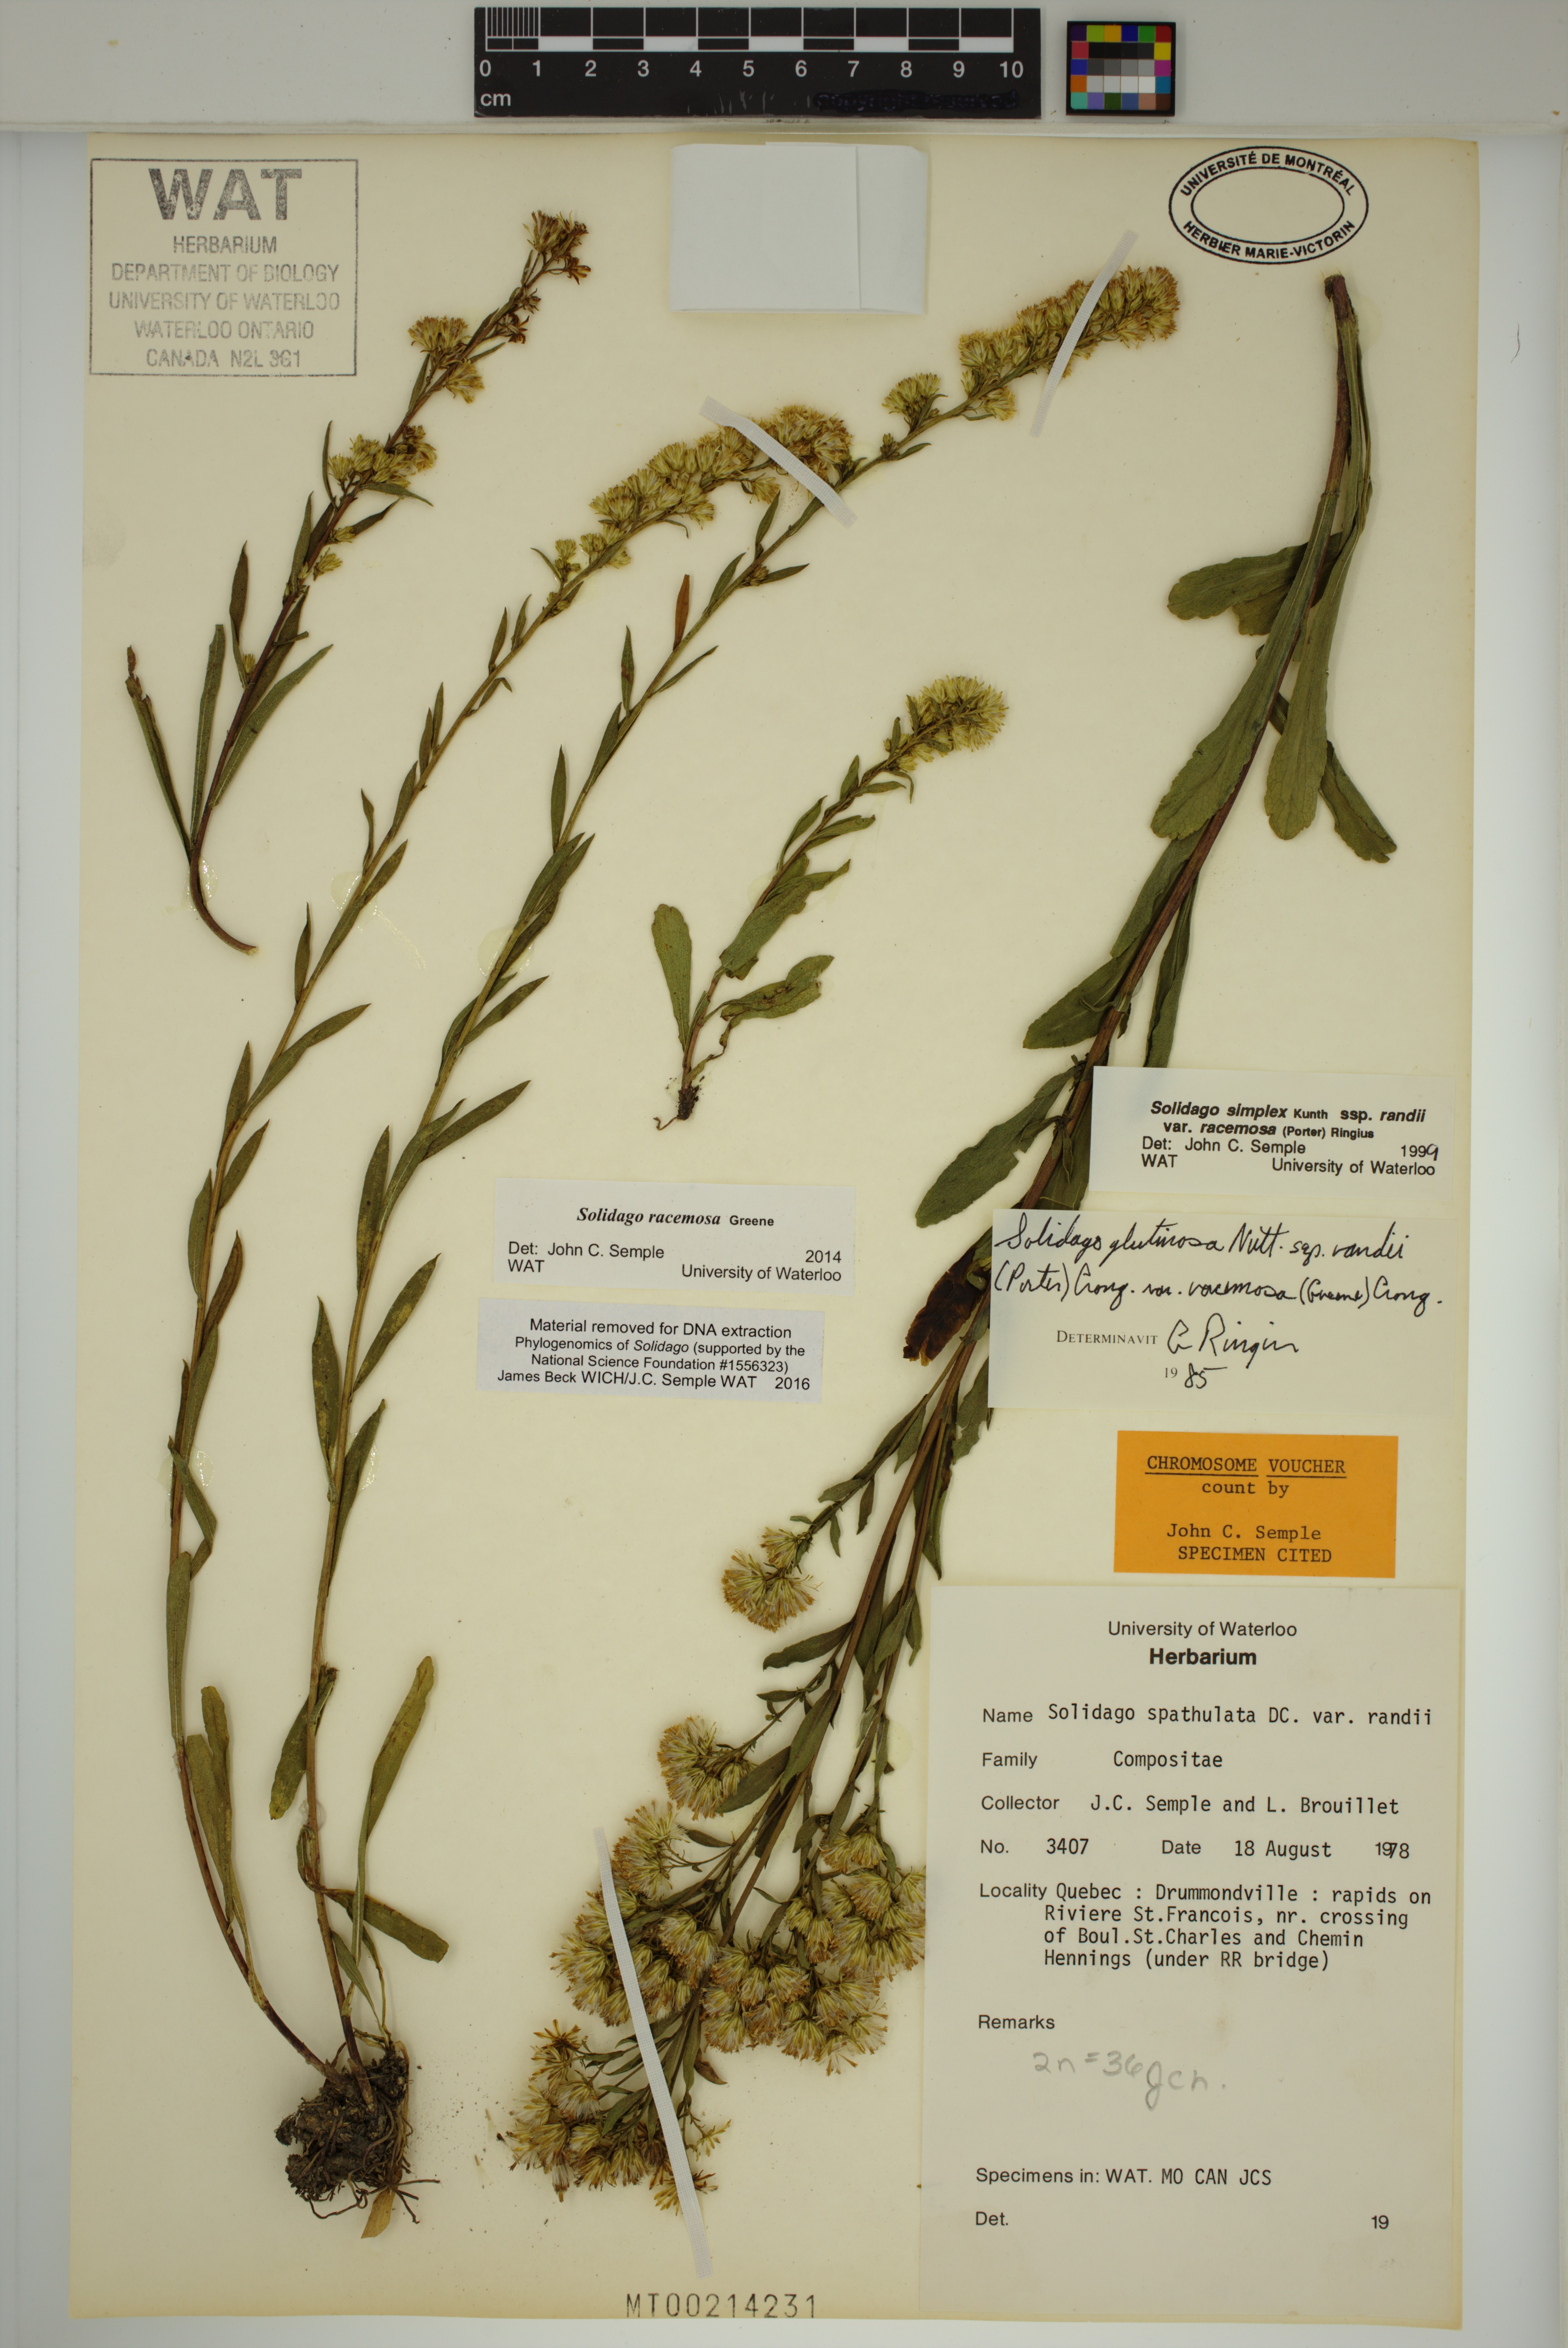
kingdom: Plantae
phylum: Tracheophyta
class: Magnoliopsida
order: Asterales
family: Asteraceae
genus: Solidago
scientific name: Solidago racemosa
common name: Lake ontario goldenrod
